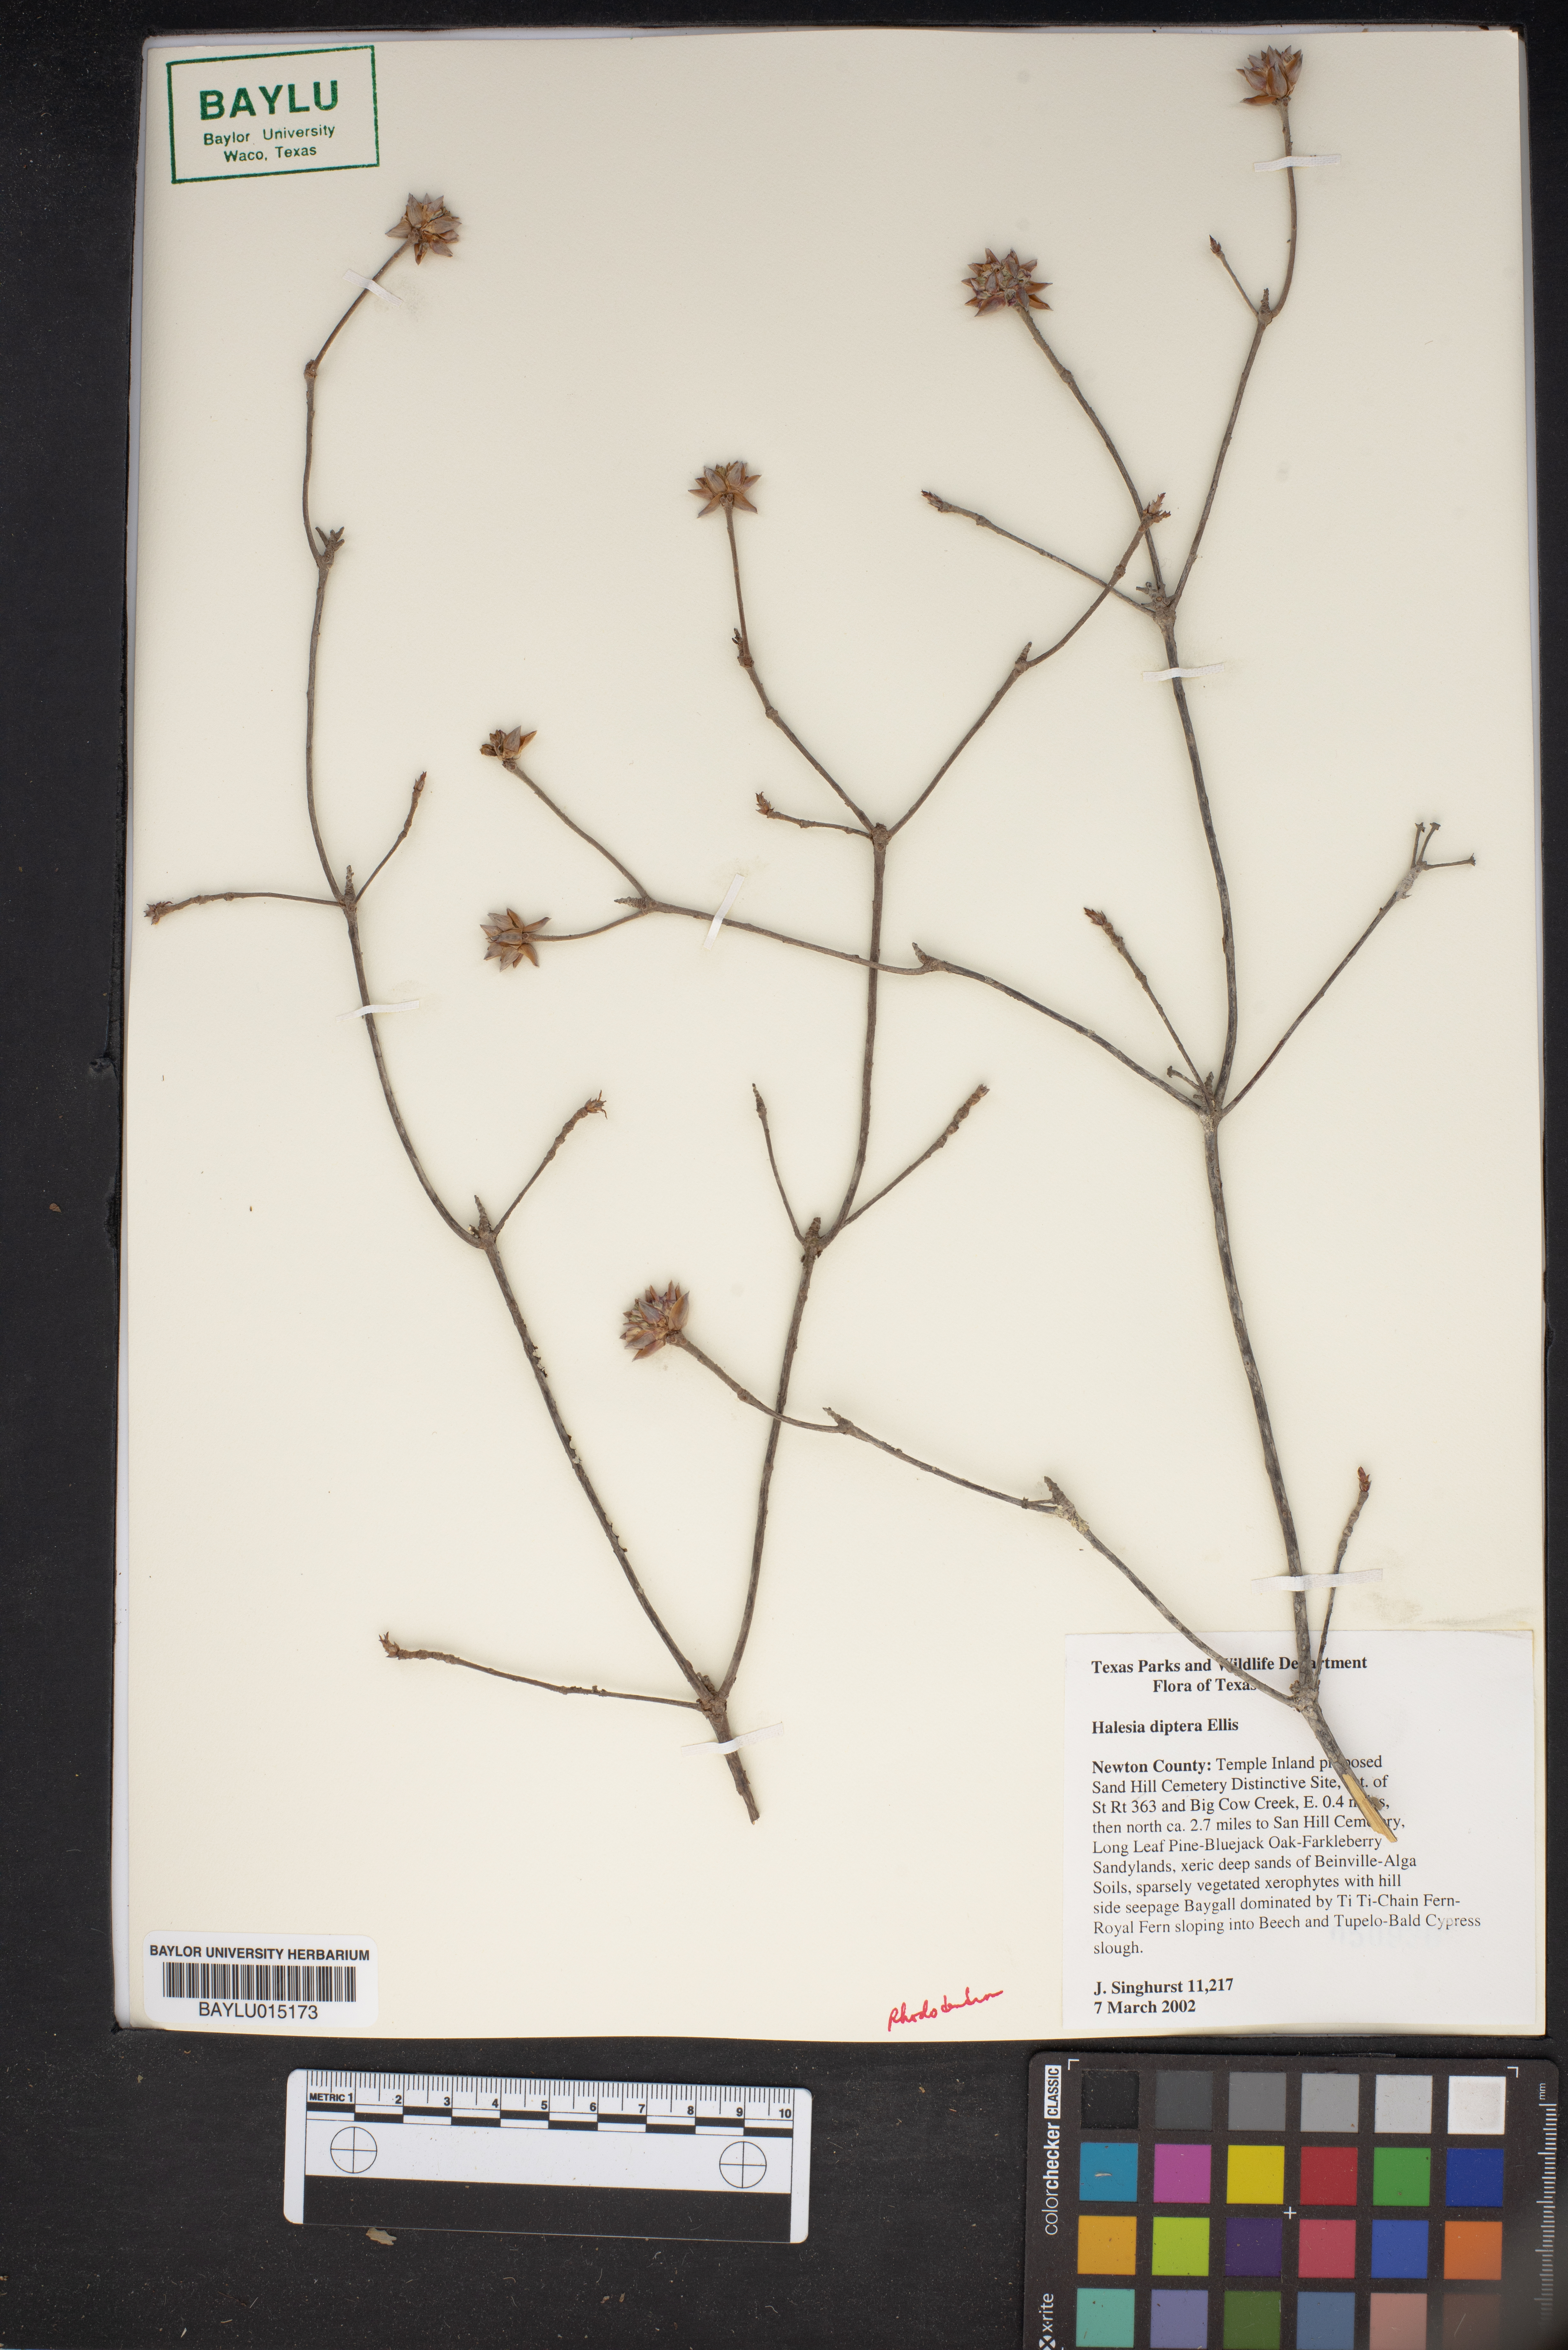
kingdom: Plantae
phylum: Tracheophyta
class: Magnoliopsida
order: Ericales
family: Styracaceae
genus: Halesia
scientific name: Halesia diptera
